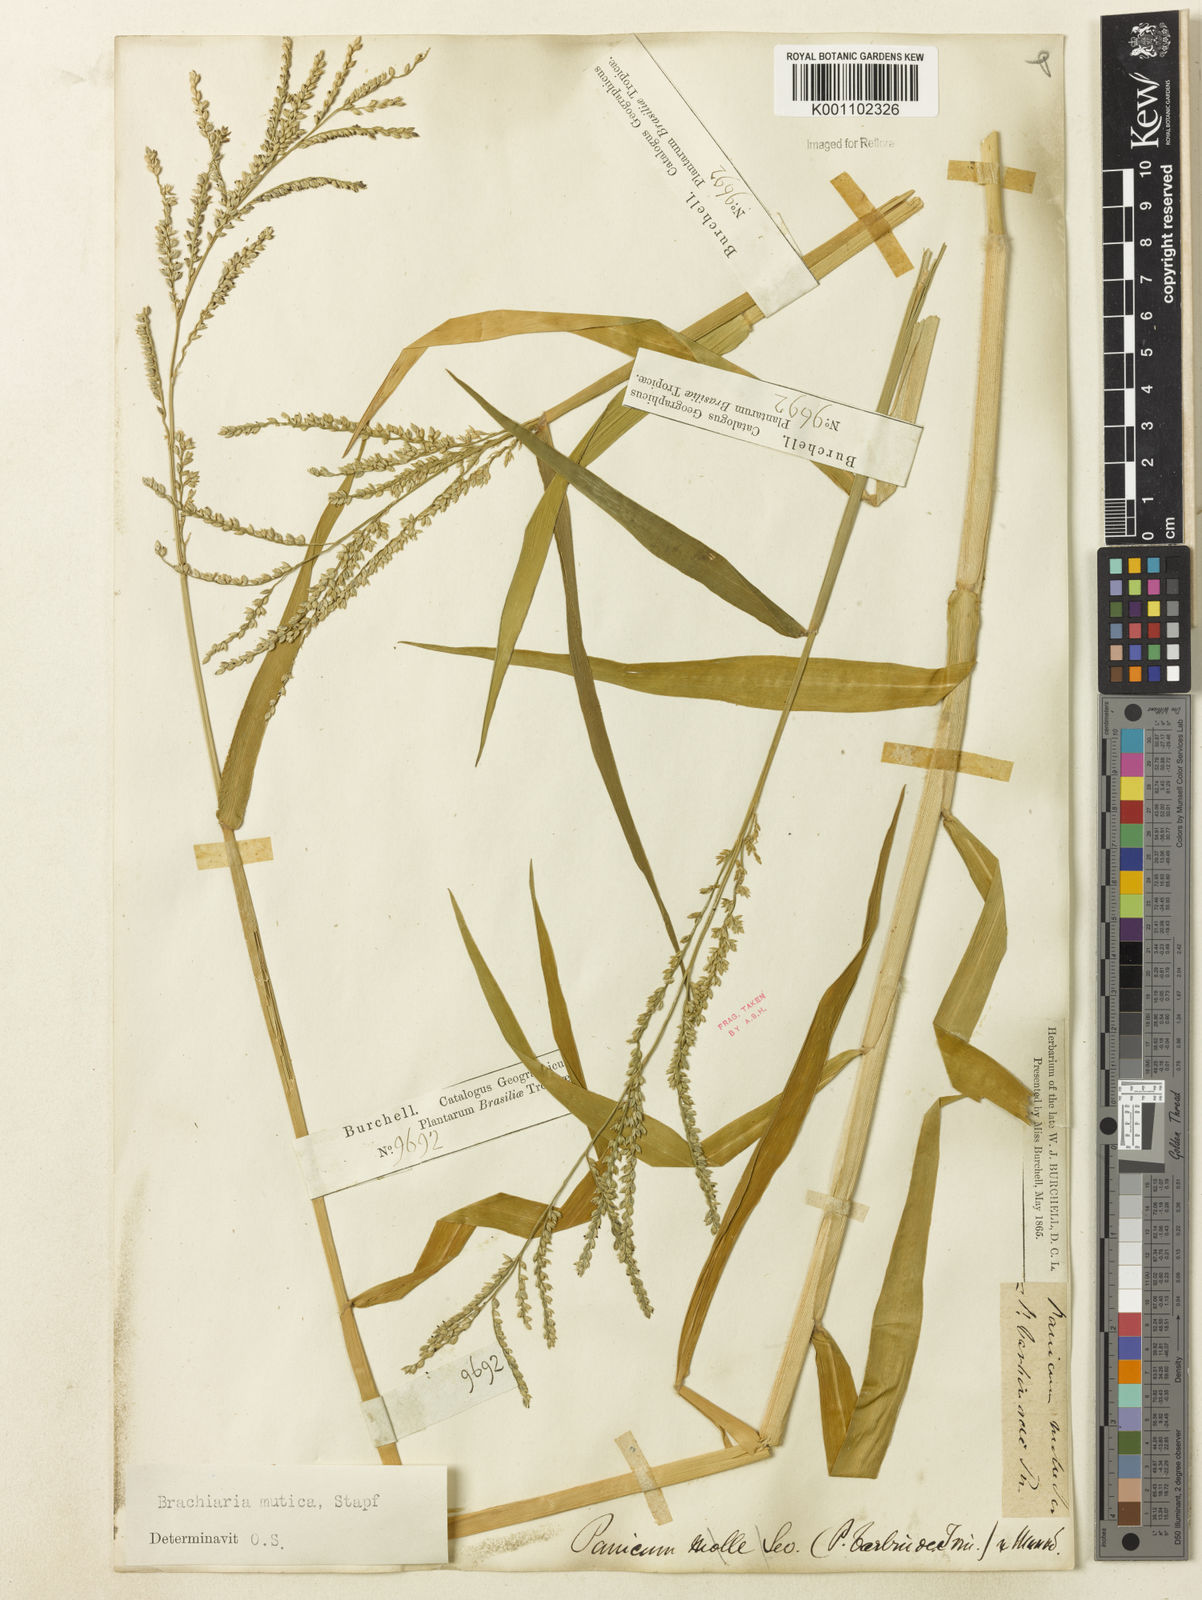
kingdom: Plantae
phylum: Tracheophyta
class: Liliopsida
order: Poales
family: Poaceae
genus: Urochloa
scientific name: Urochloa mutica
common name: Para grass
